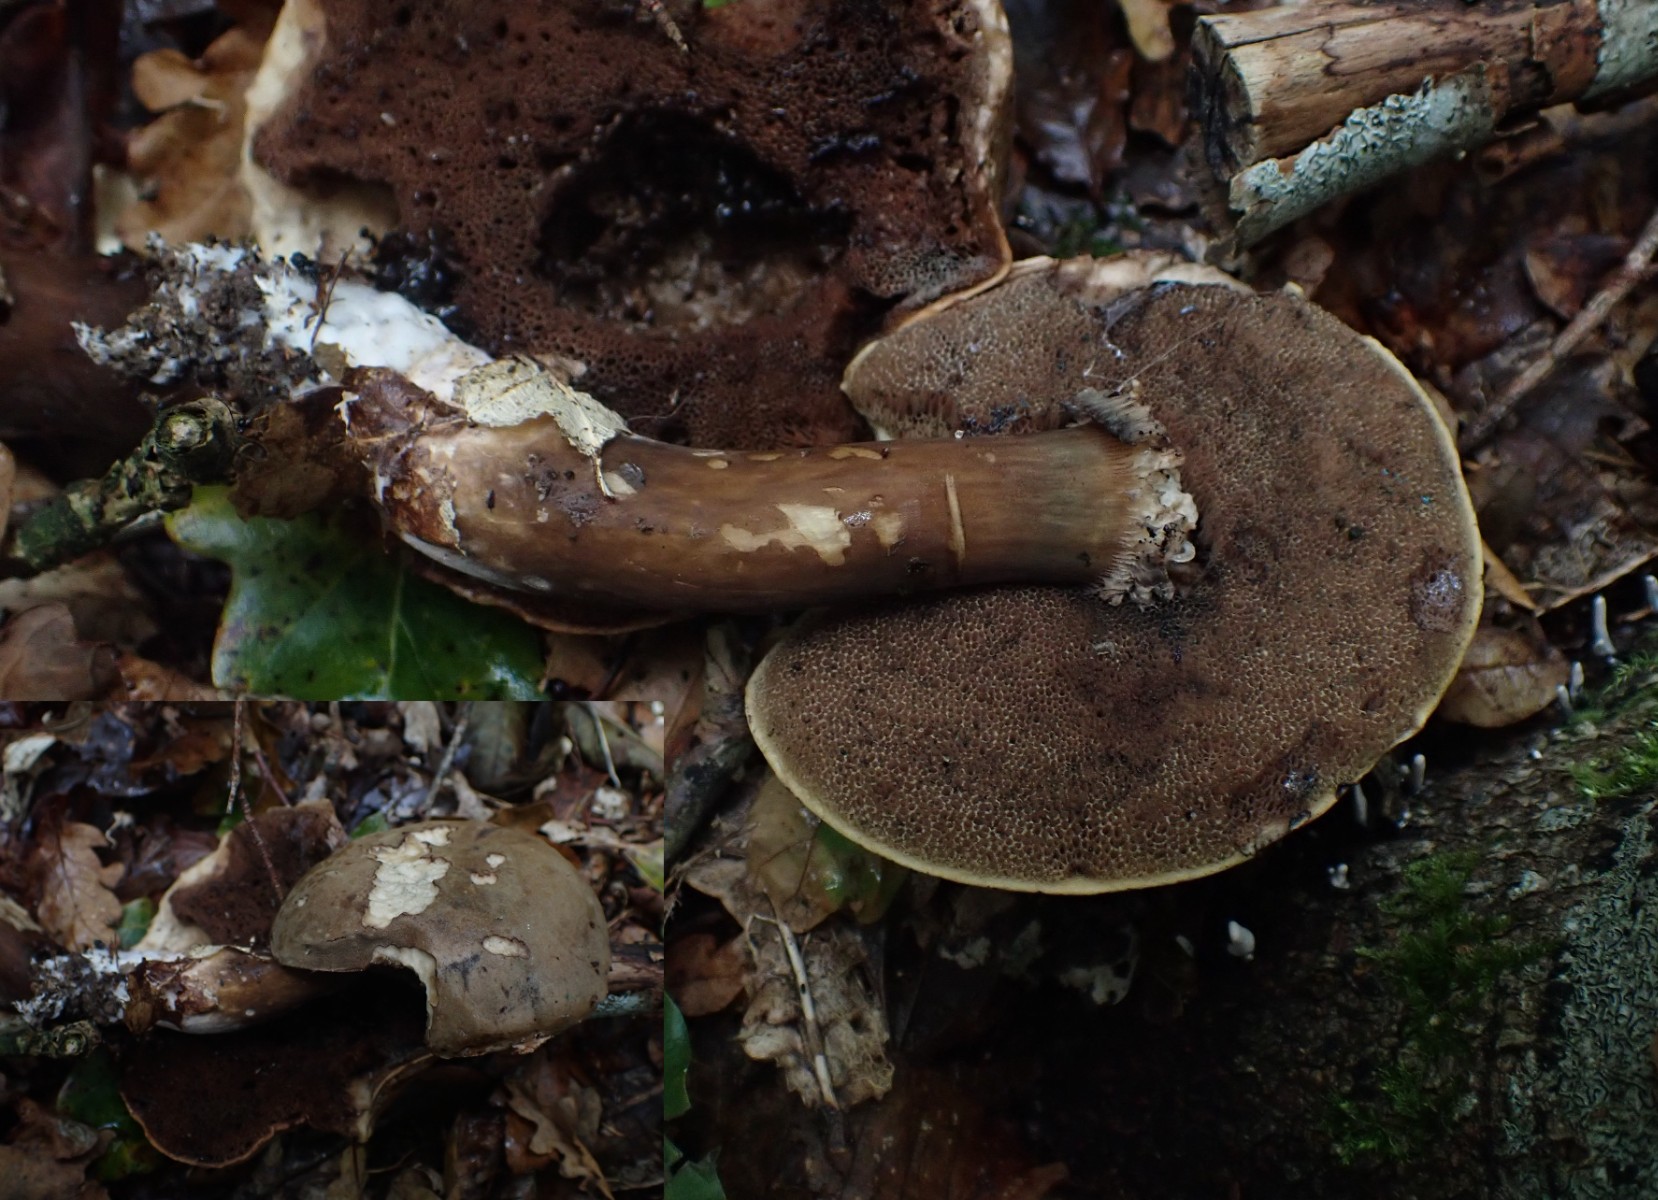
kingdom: Fungi
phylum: Basidiomycota
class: Agaricomycetes
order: Boletales
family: Boletaceae
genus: Porphyrellus
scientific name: Porphyrellus porphyrosporus
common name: sodrørhat
